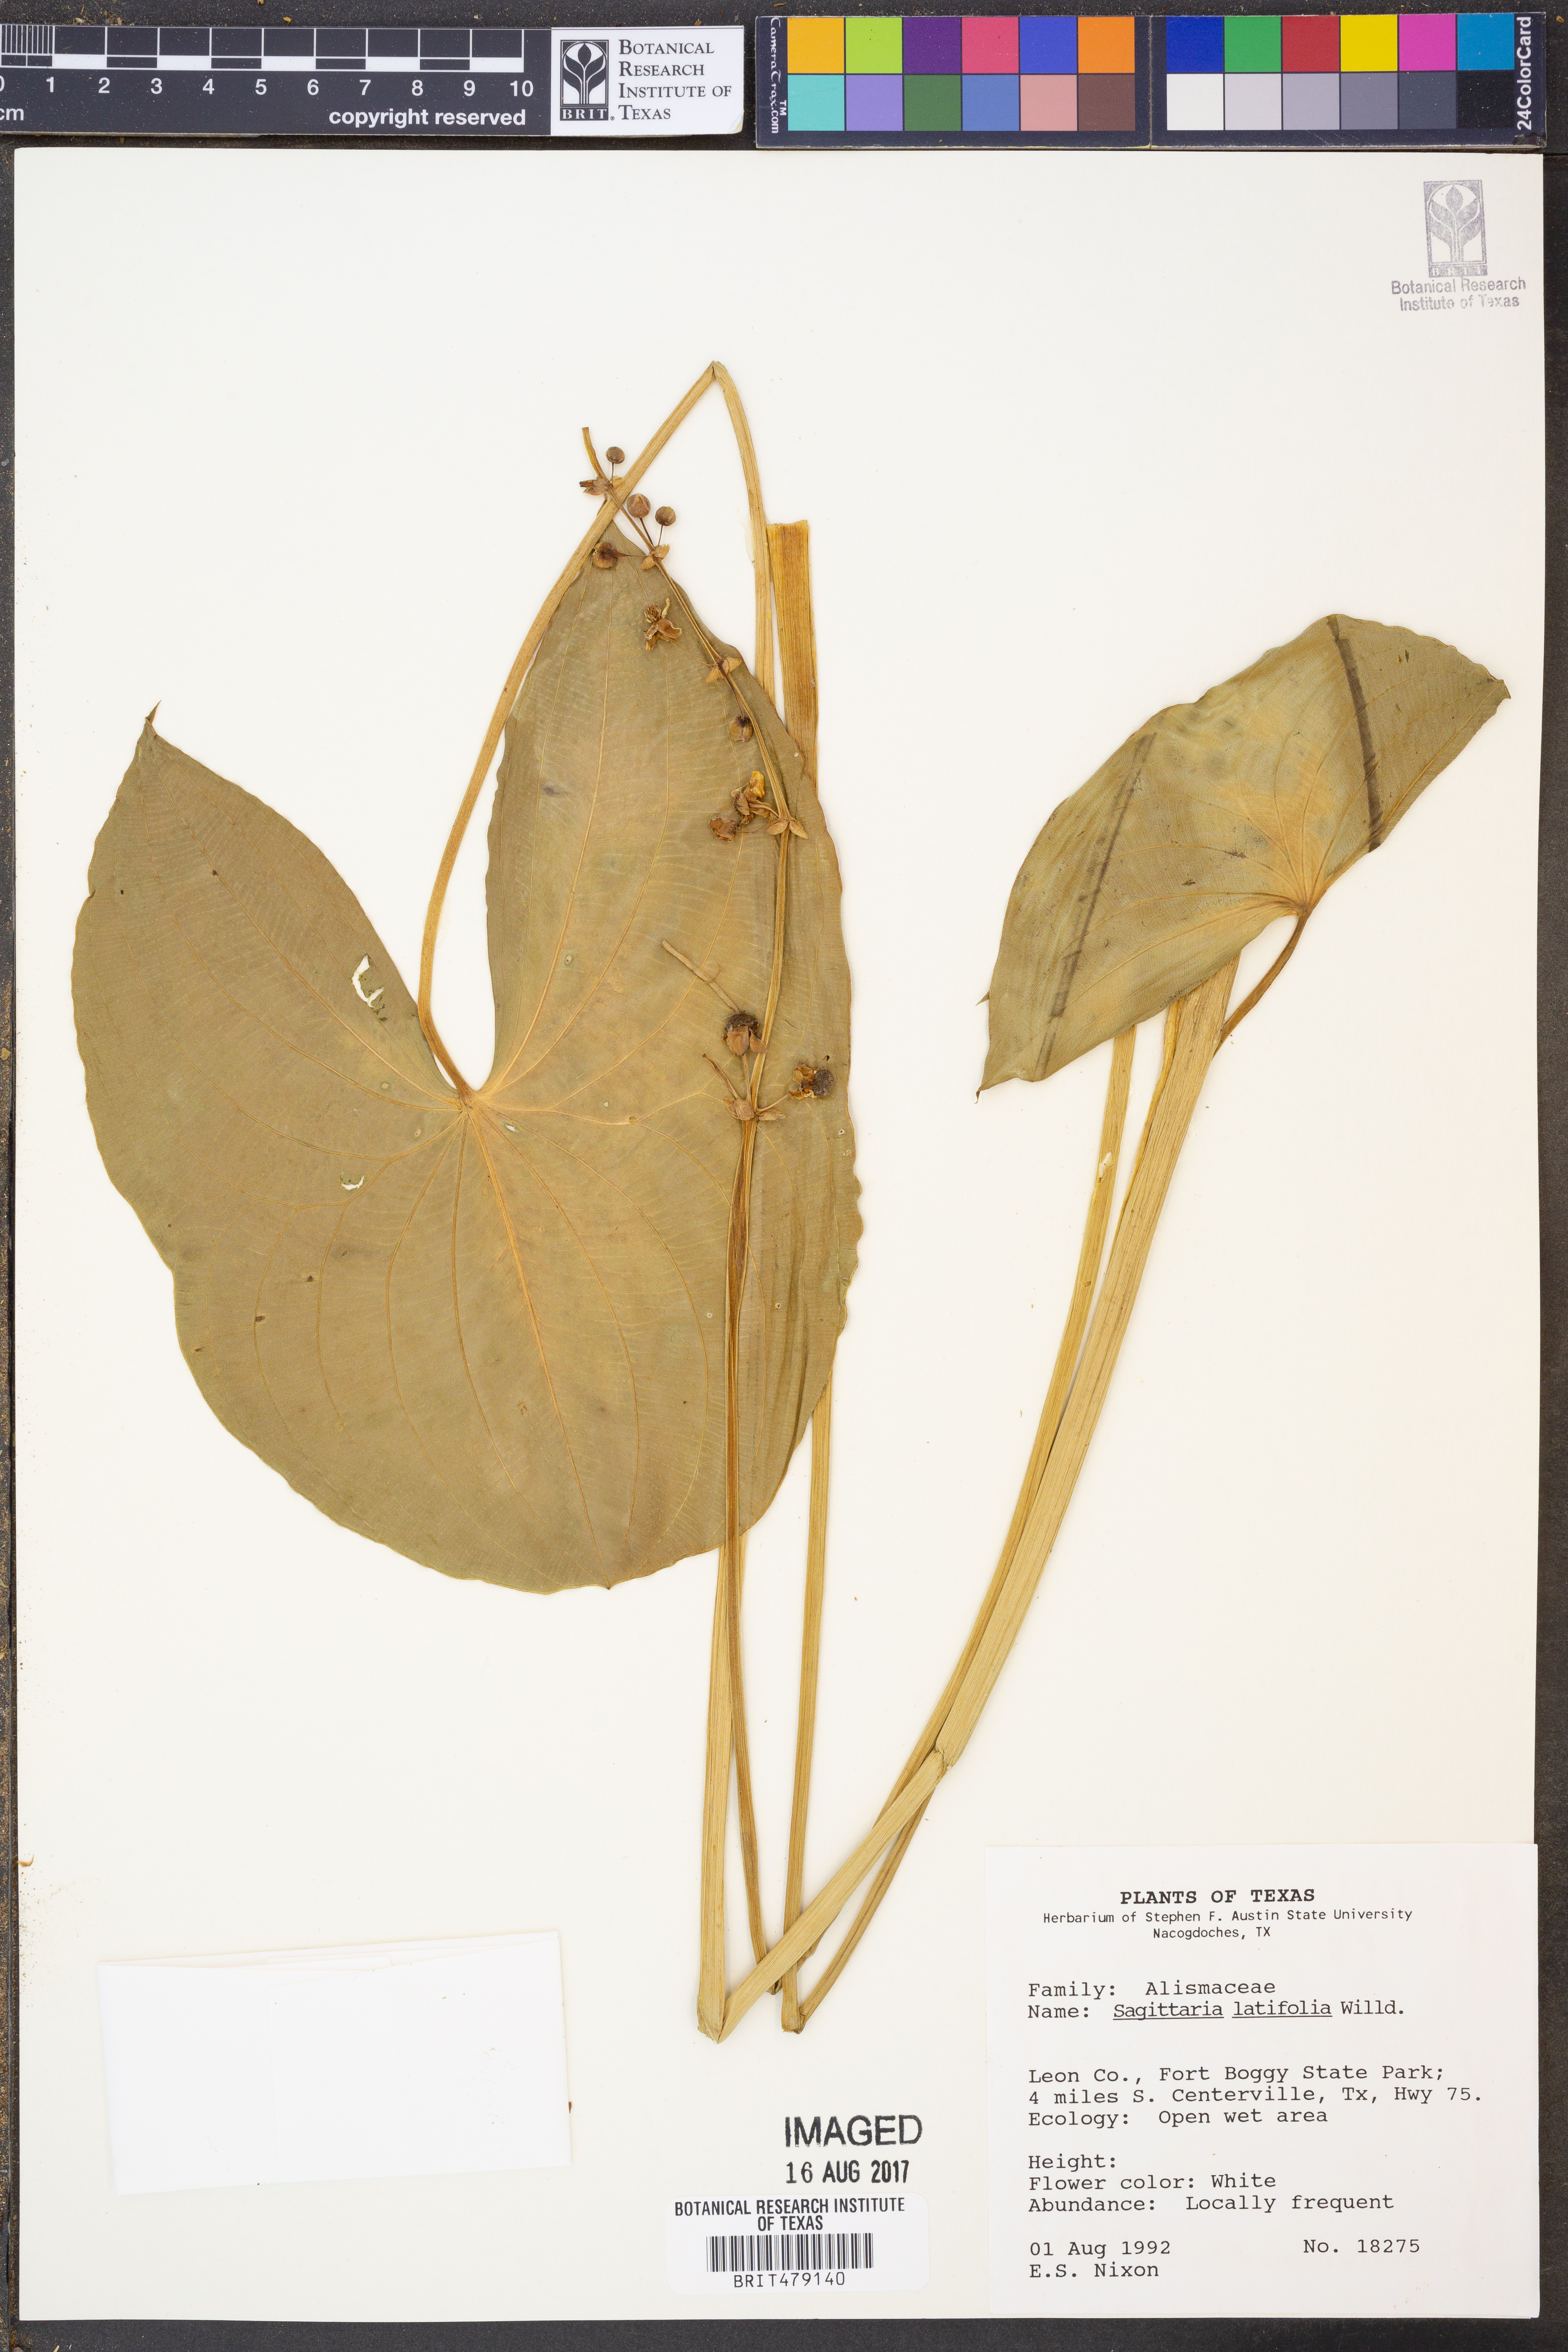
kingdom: Plantae
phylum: Tracheophyta
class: Liliopsida
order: Alismatales
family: Alismataceae
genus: Sagittaria
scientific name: Sagittaria latifolia
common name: Duck-potato
